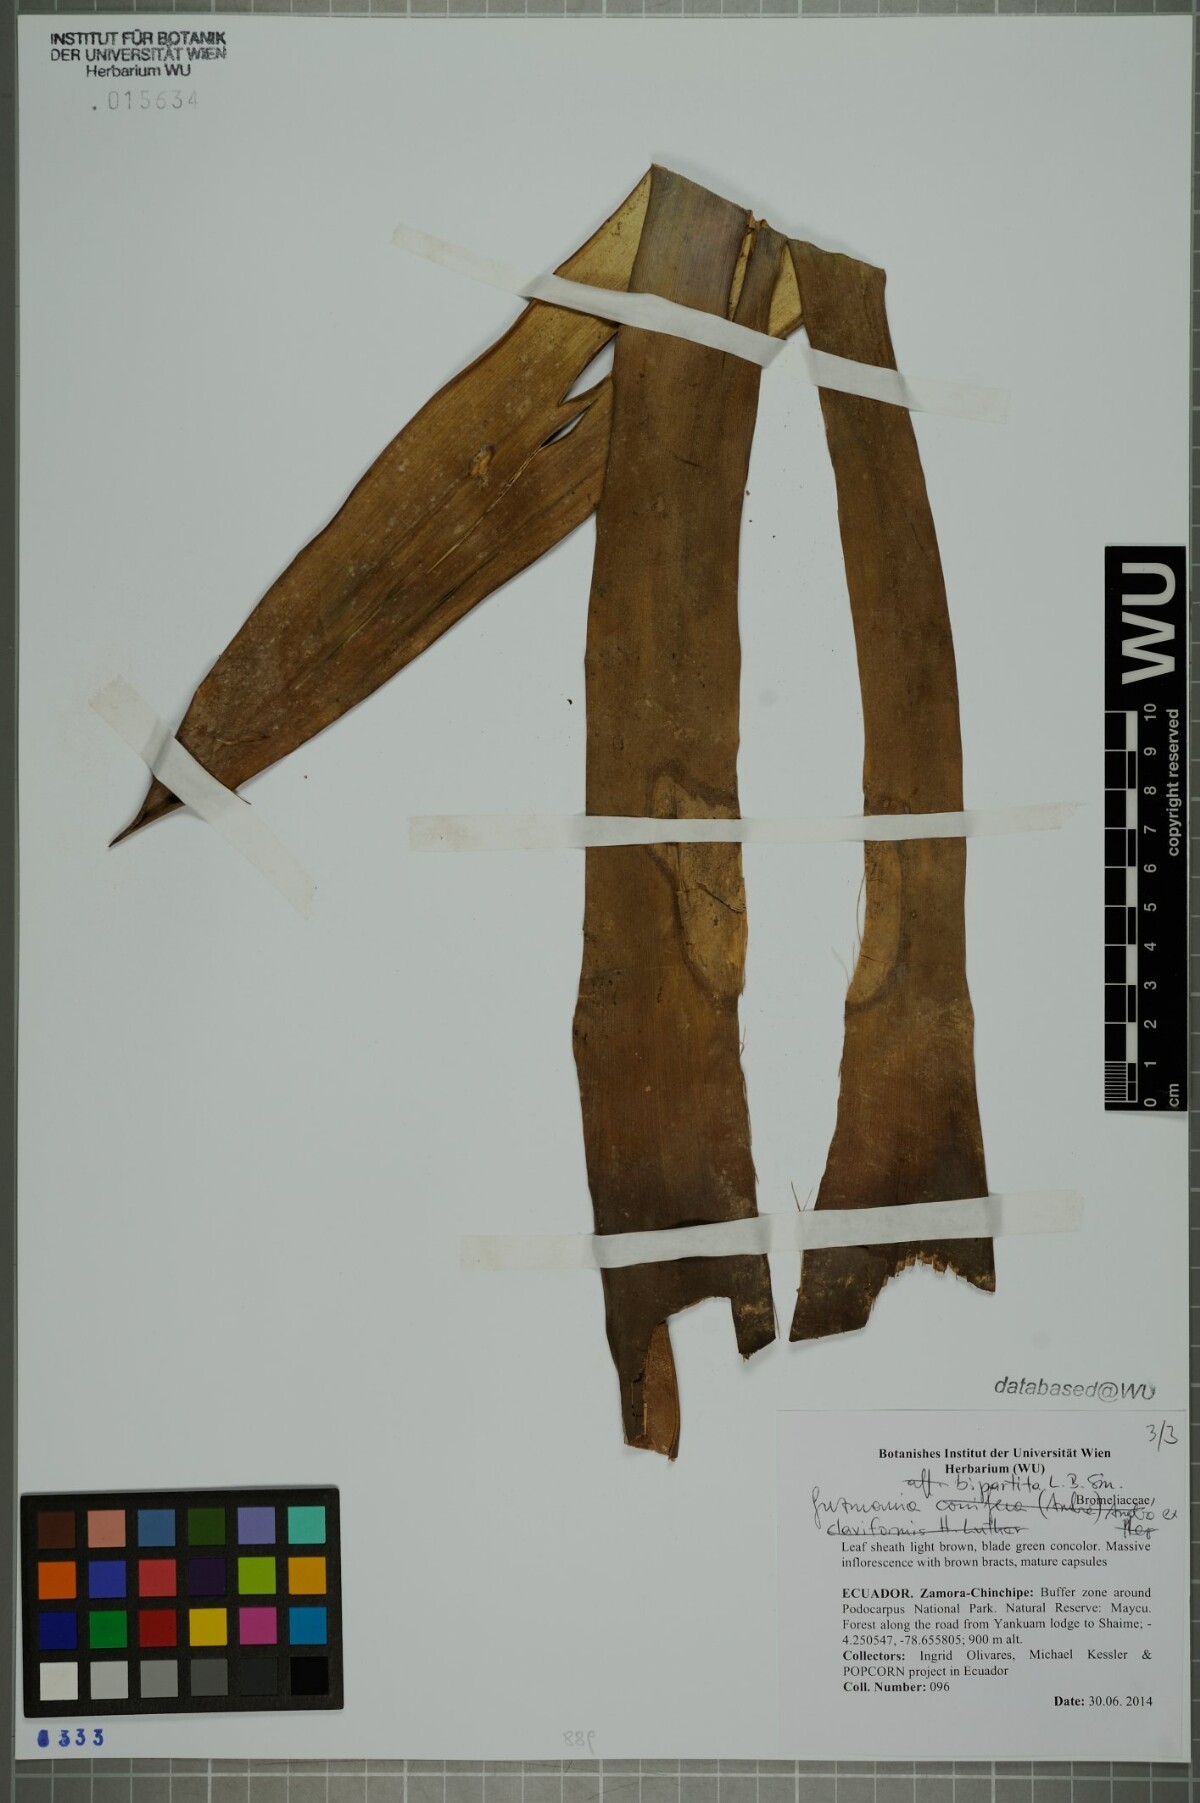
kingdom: Plantae
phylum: Tracheophyta
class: Liliopsida
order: Poales
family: Bromeliaceae
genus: Guzmania
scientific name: Guzmania bipartita
